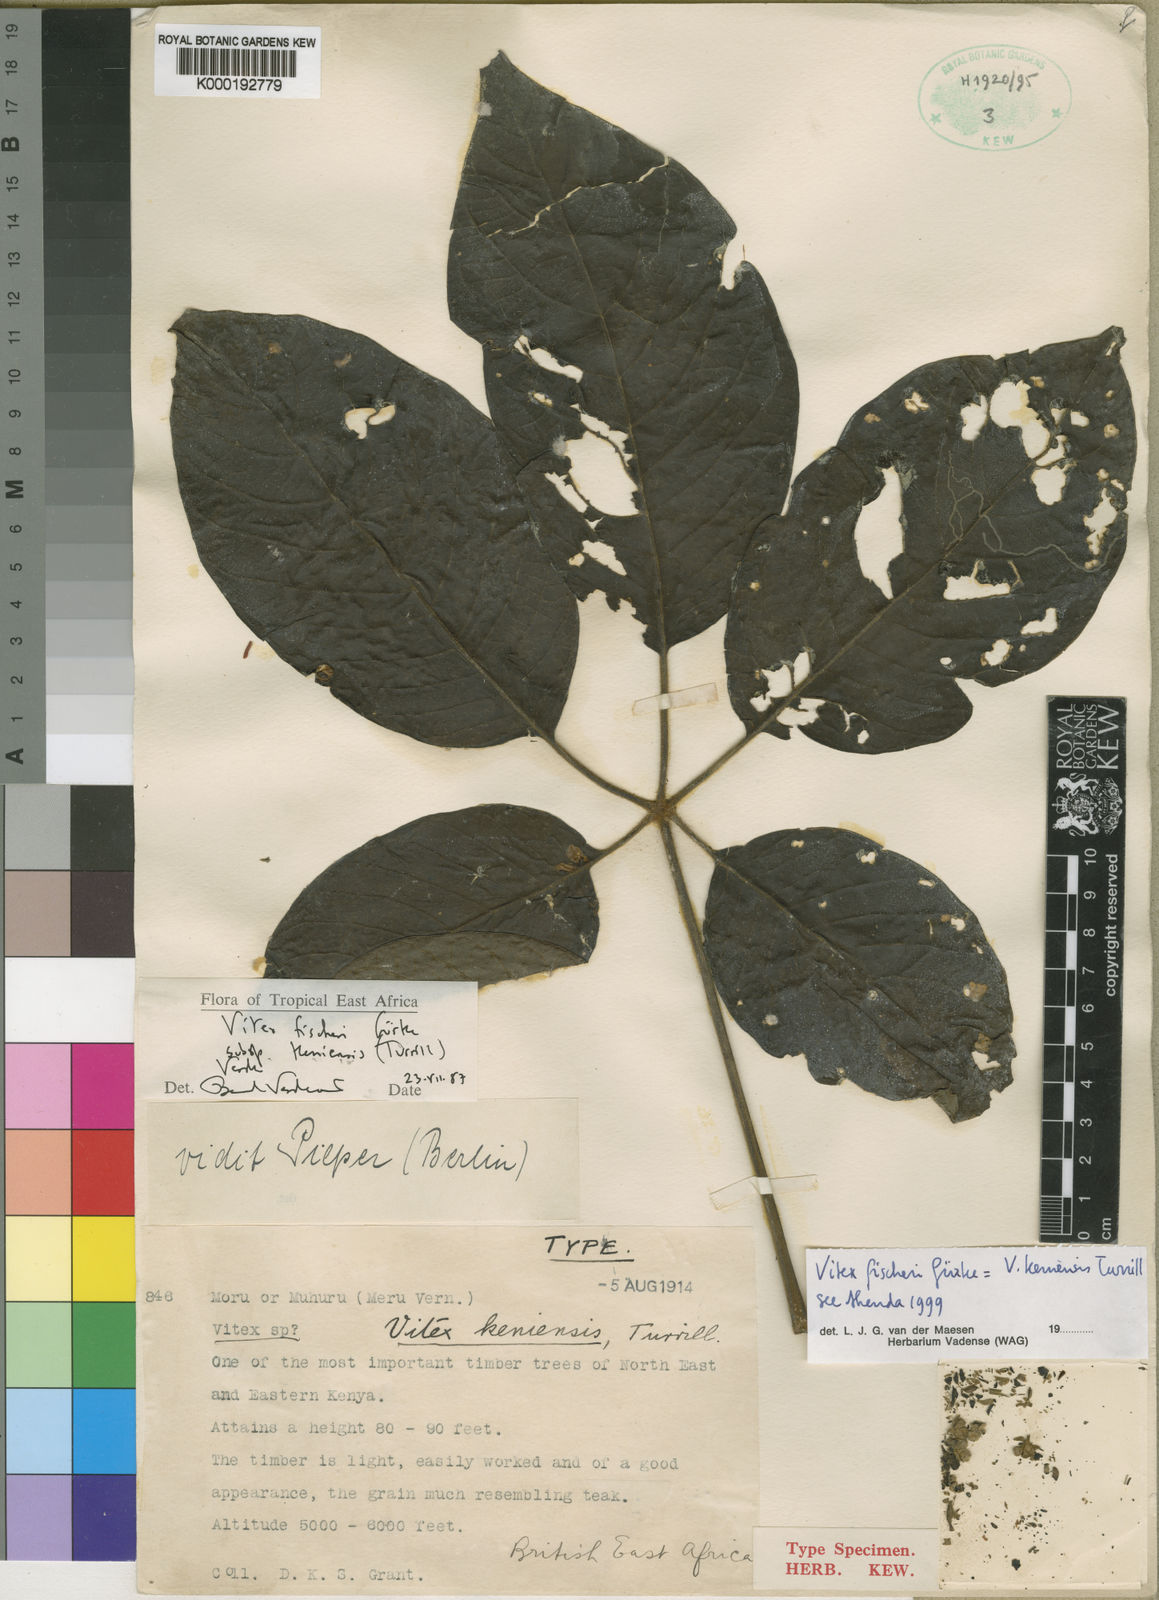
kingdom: Plantae
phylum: Tracheophyta
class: Magnoliopsida
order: Lamiales
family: Lamiaceae
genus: Vitex
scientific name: Vitex
